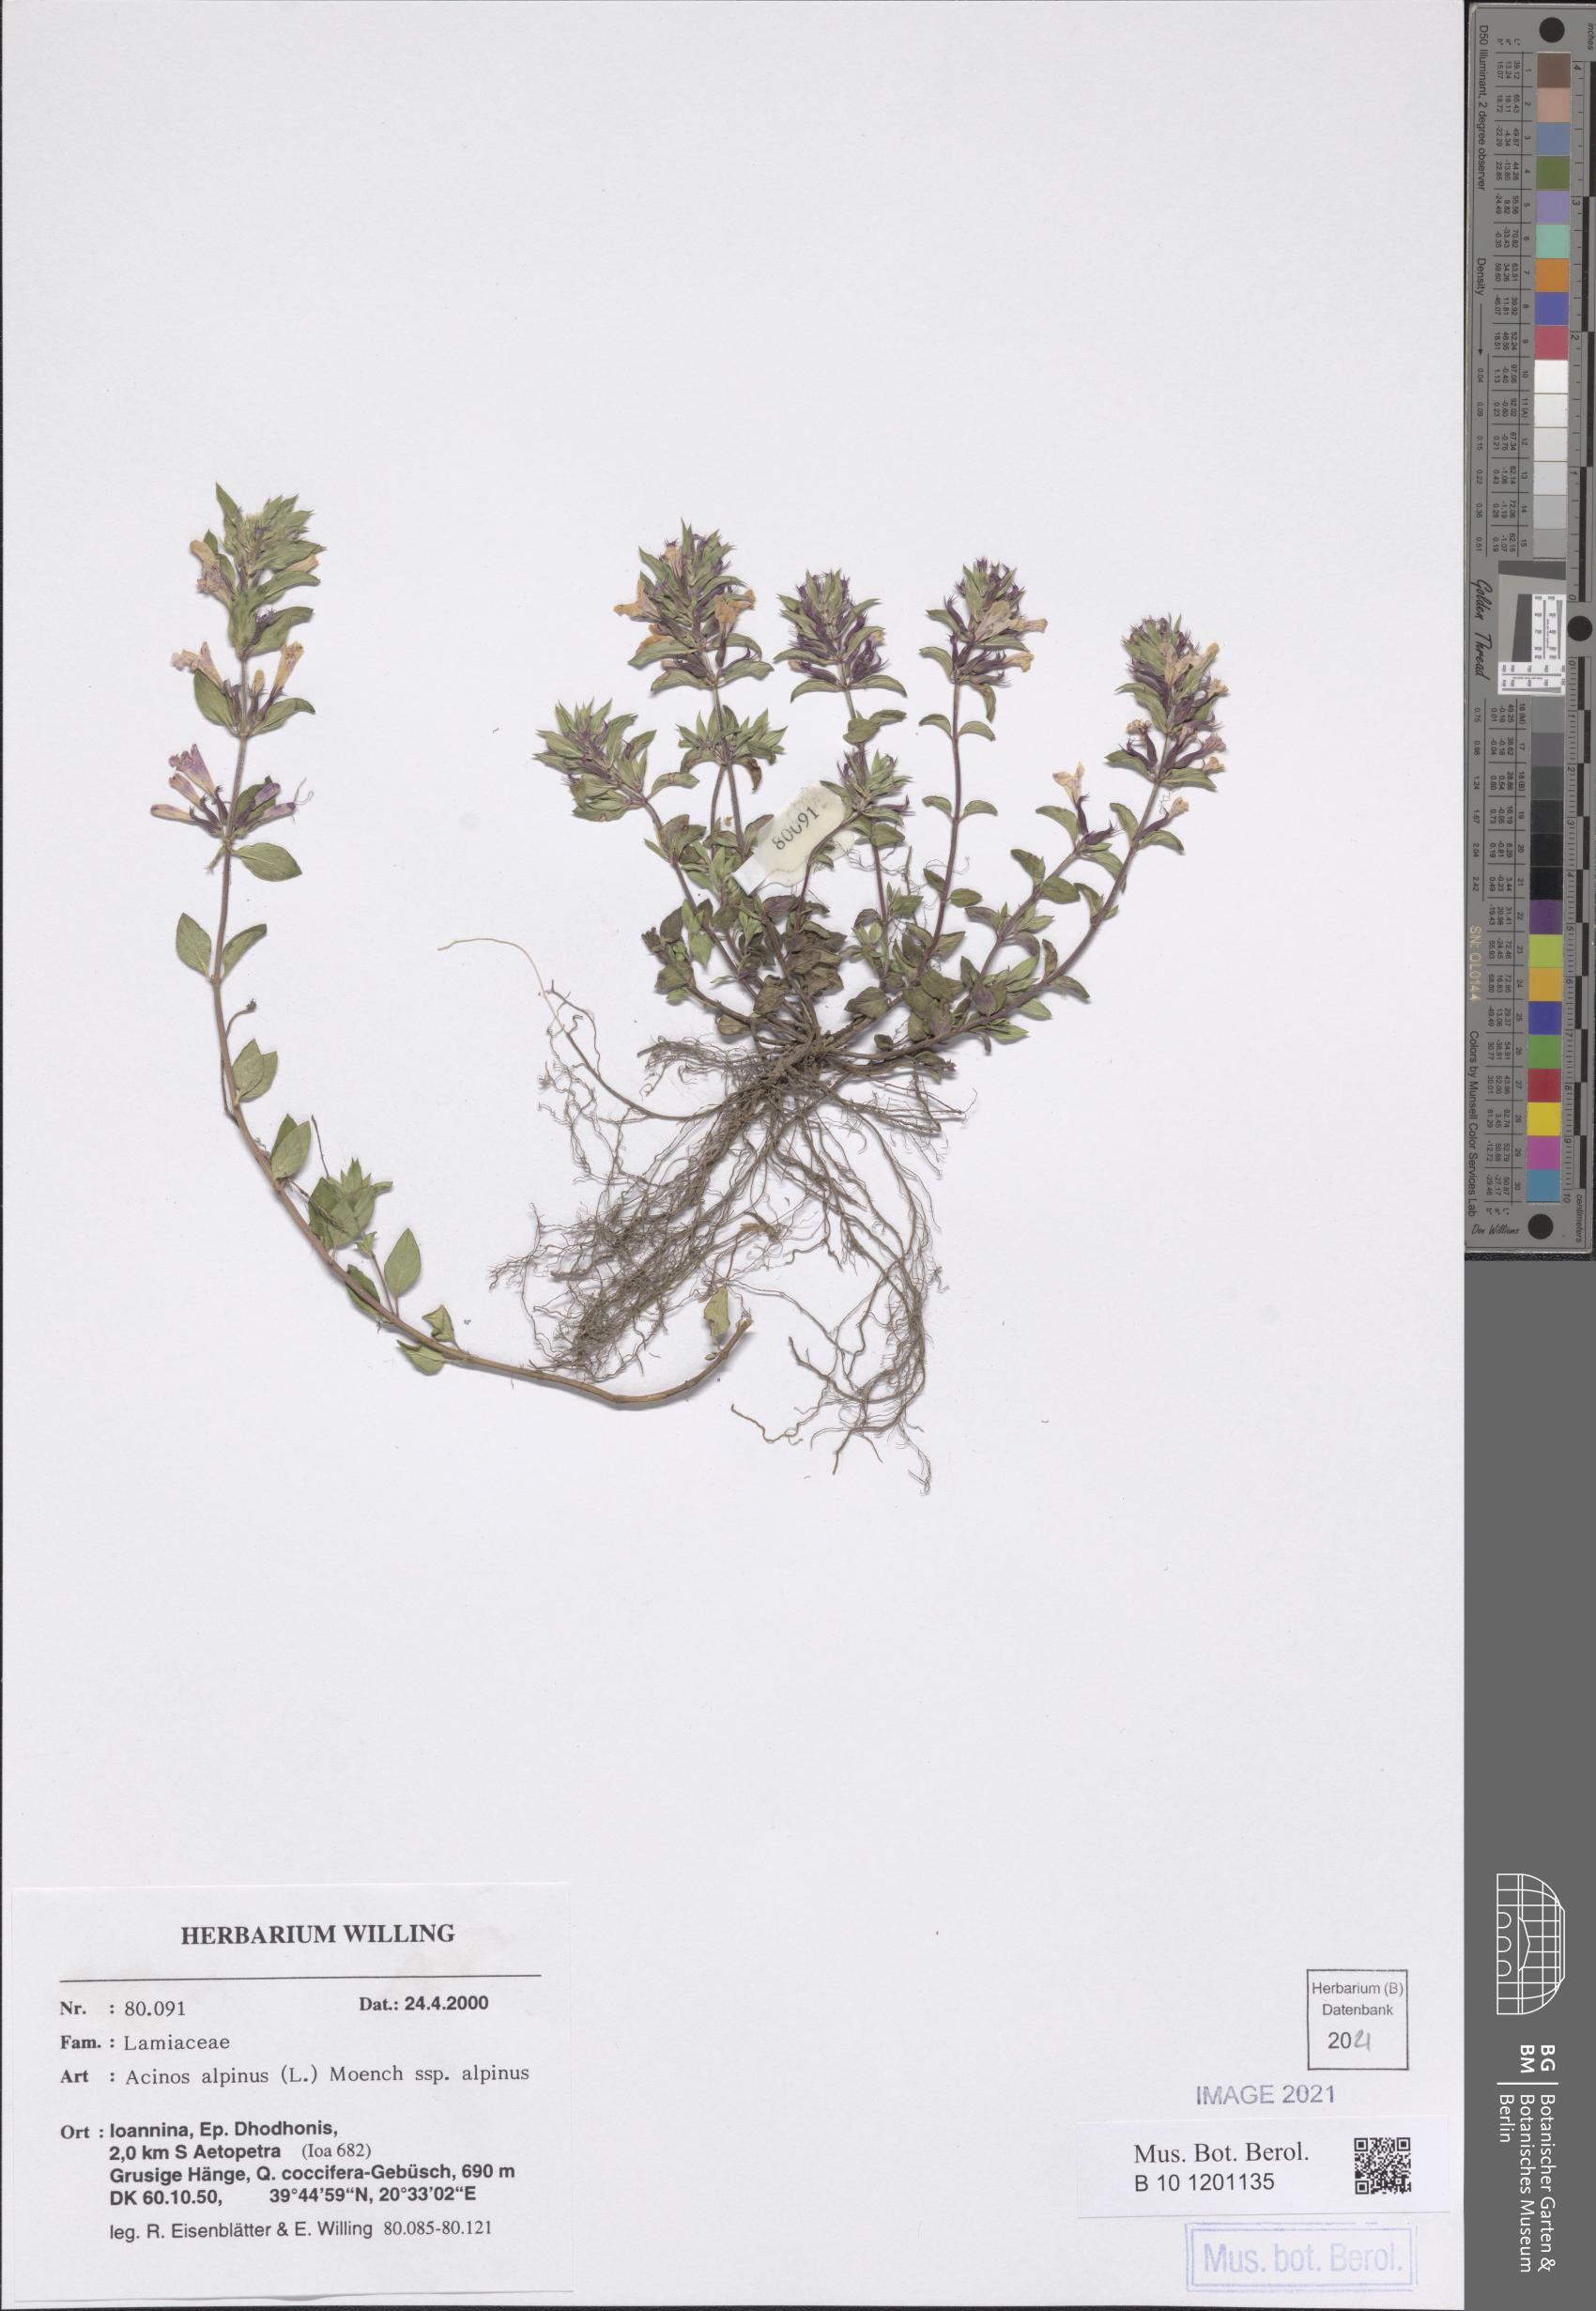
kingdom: Plantae
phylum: Tracheophyta
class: Magnoliopsida
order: Lamiales
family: Lamiaceae
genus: Clinopodium
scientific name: Clinopodium alpinum
